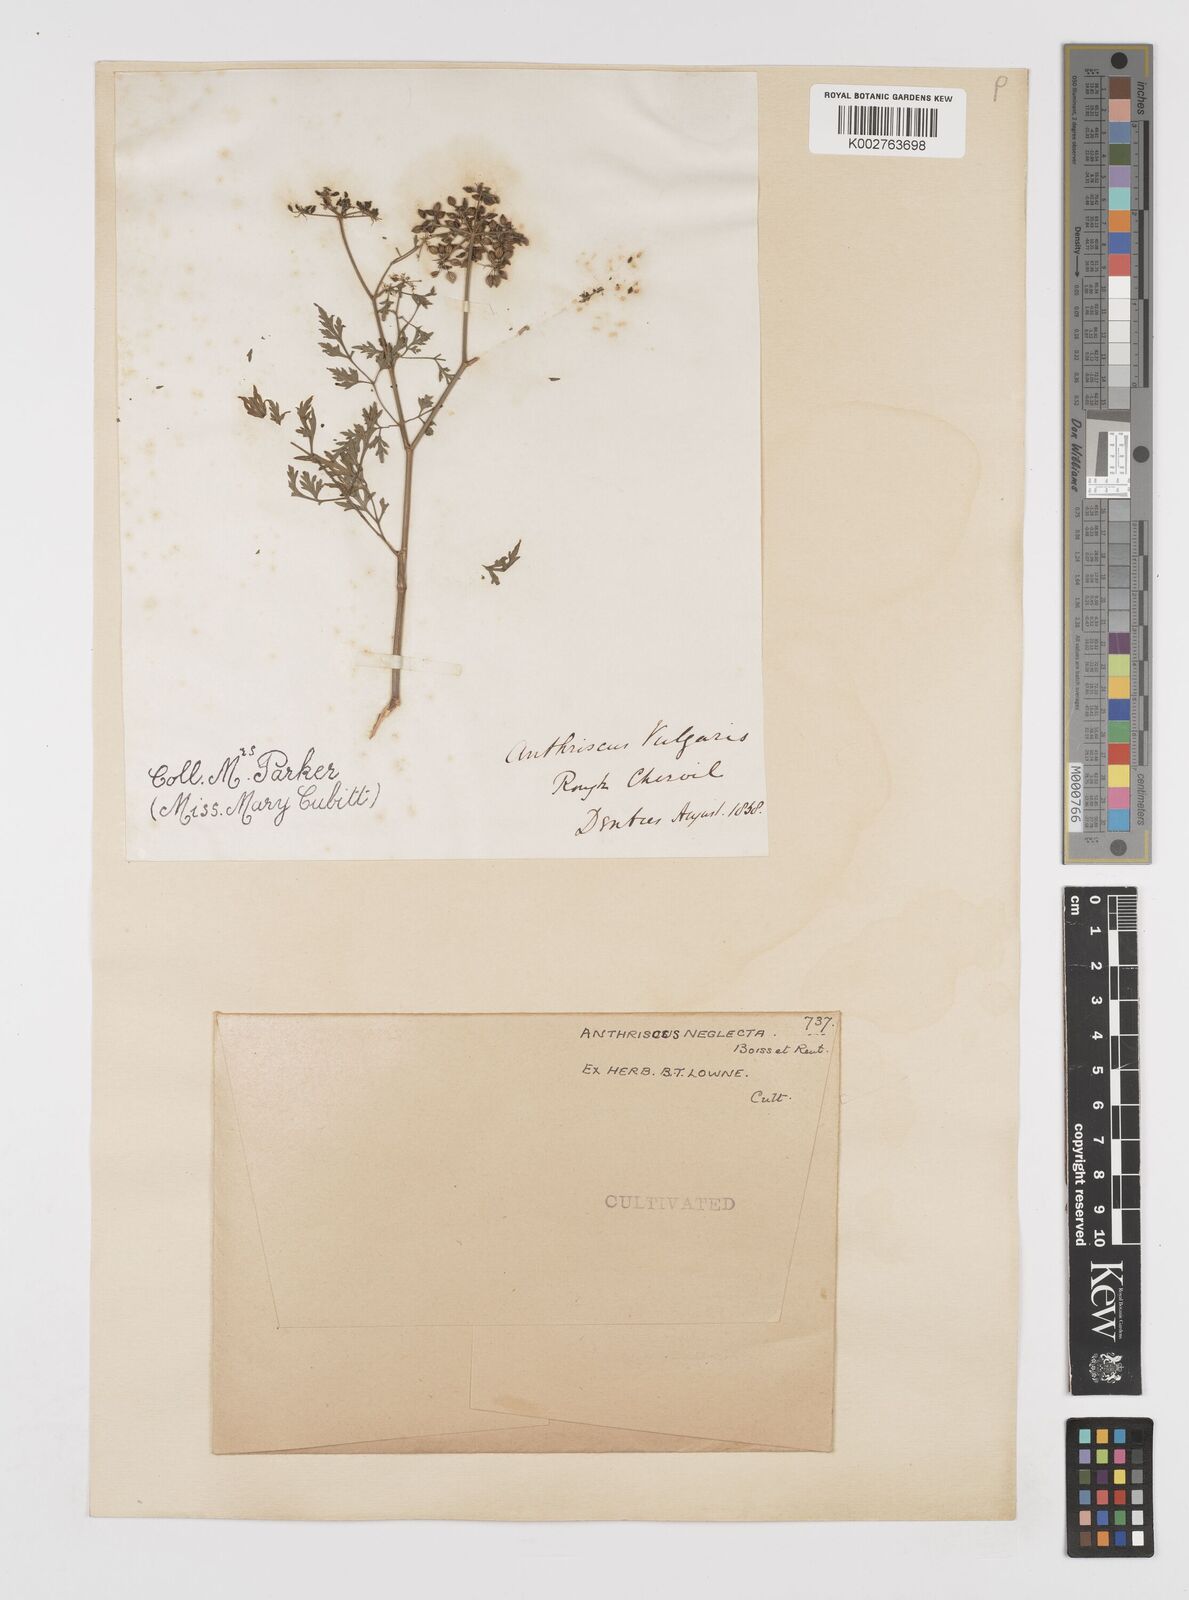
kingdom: Plantae
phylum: Tracheophyta
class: Magnoliopsida
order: Apiales
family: Apiaceae
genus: Anthriscus
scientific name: Anthriscus
